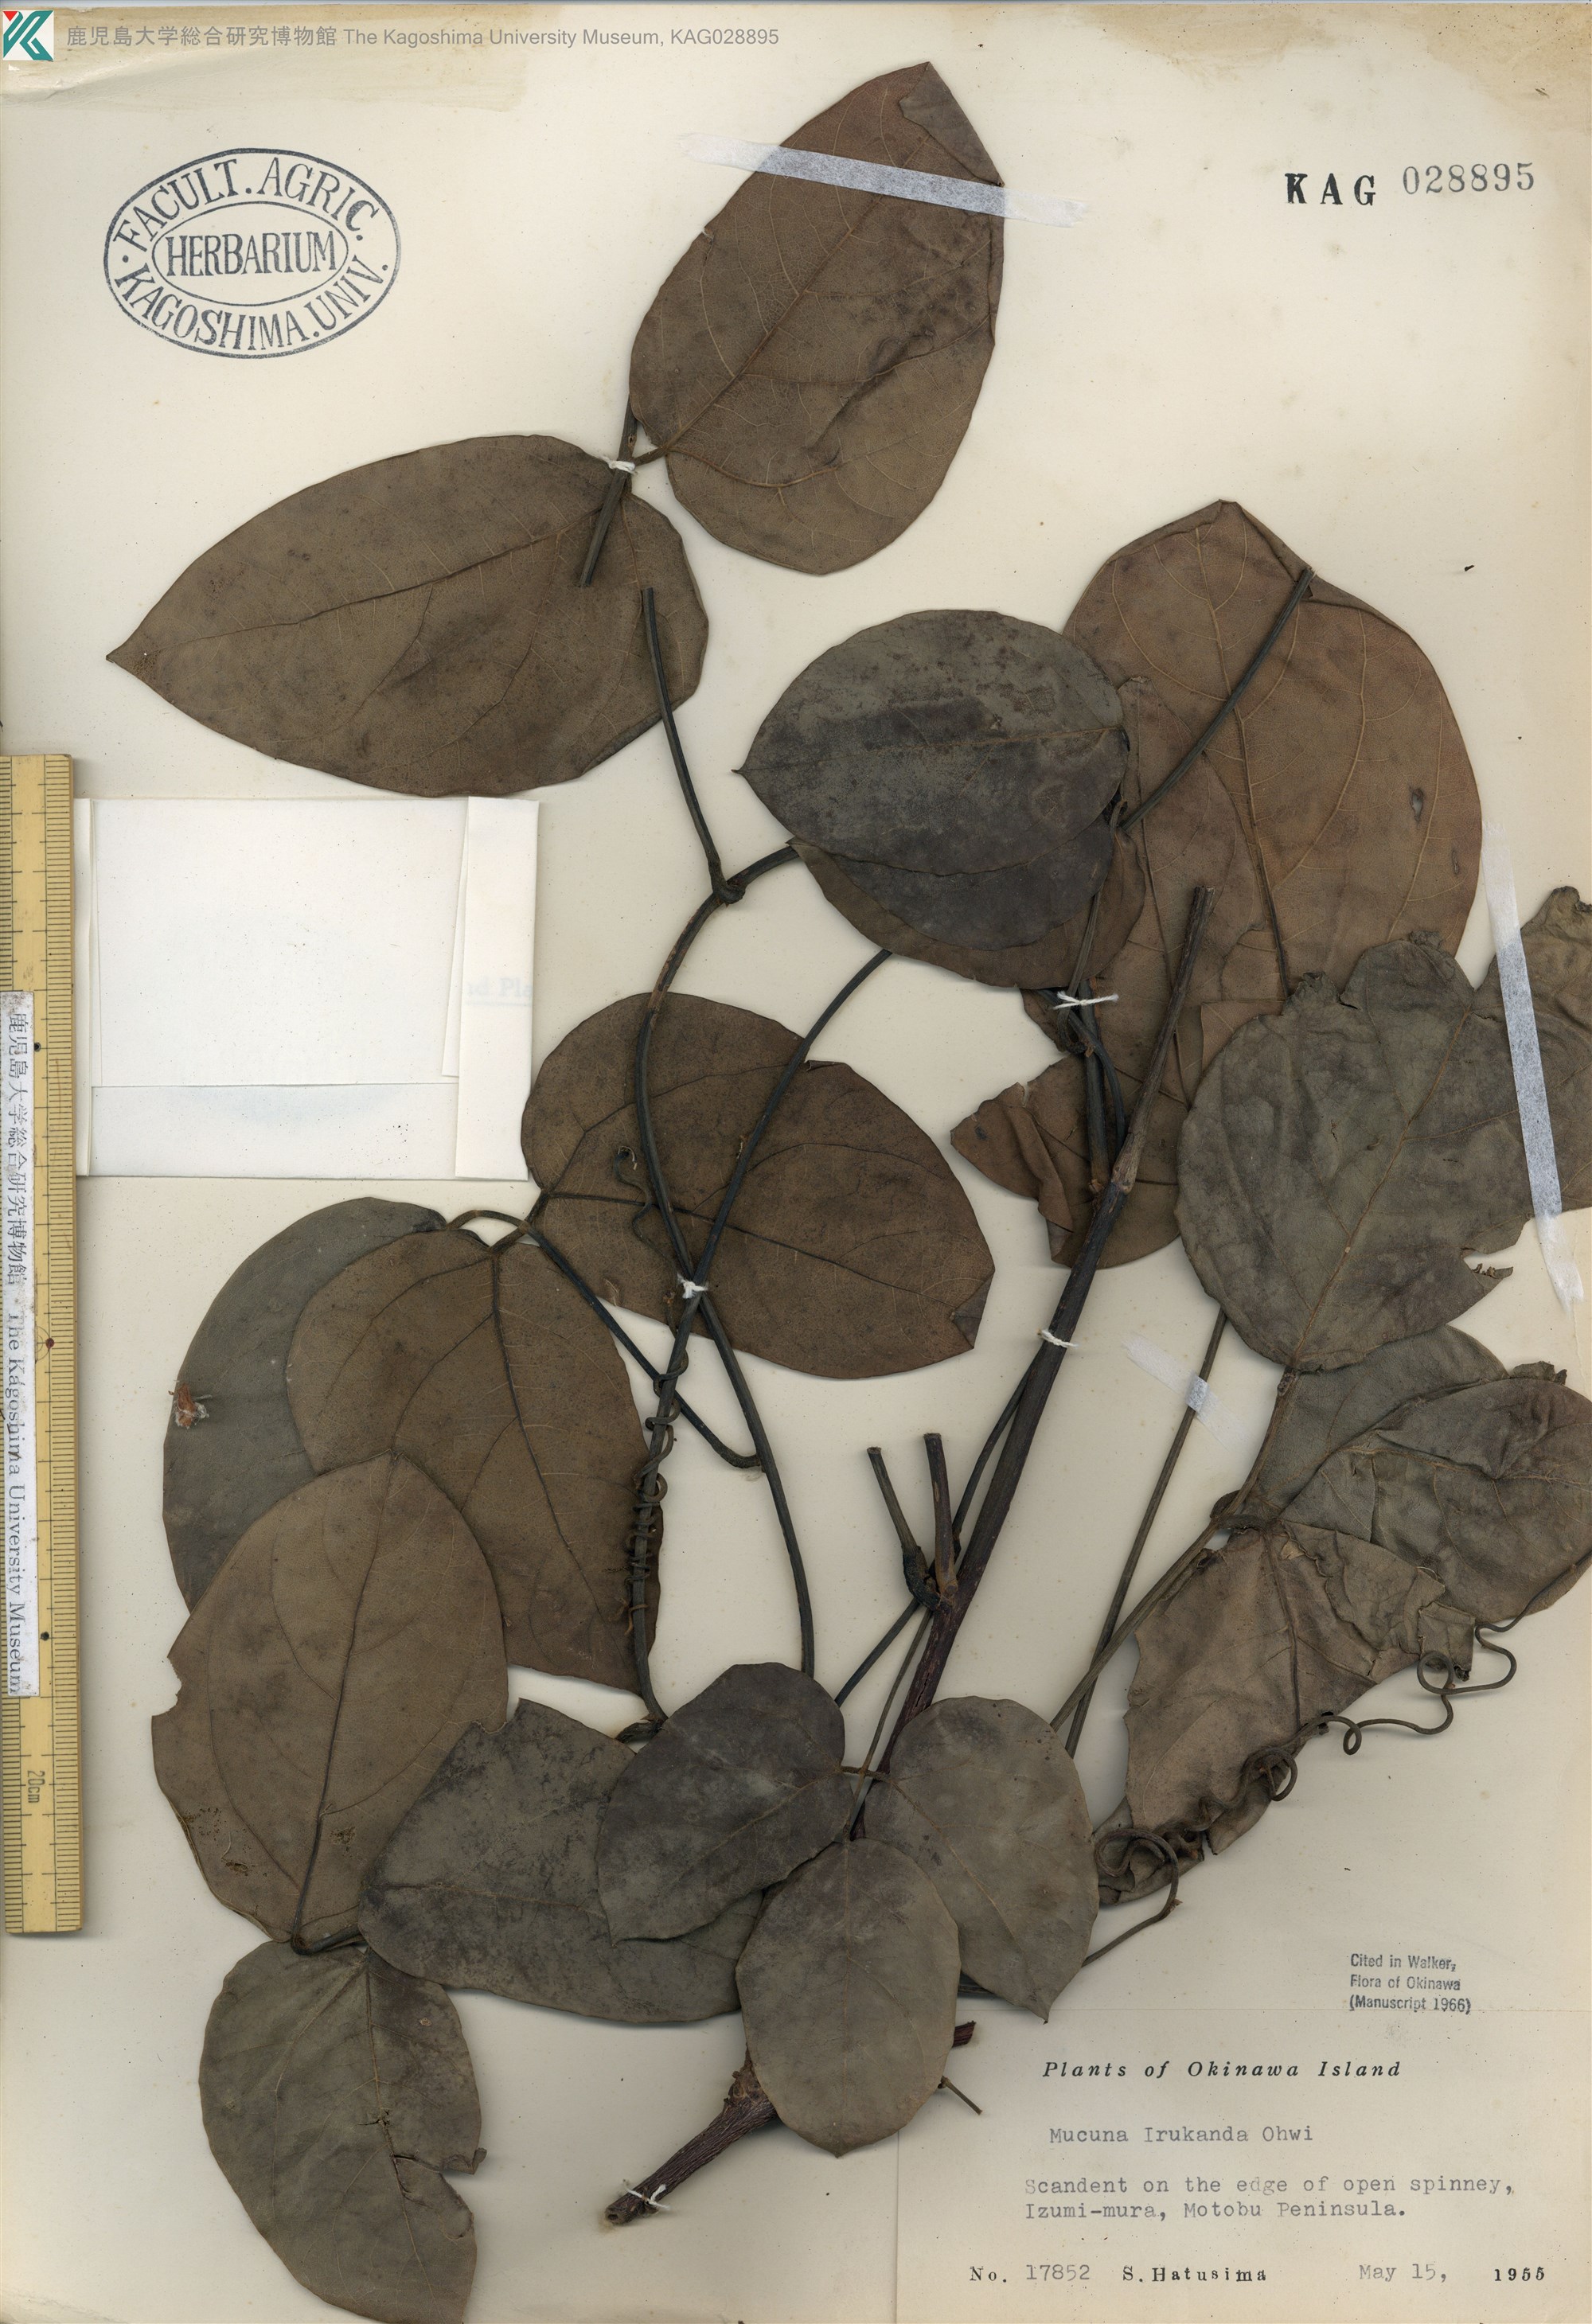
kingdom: Plantae
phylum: Tracheophyta
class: Magnoliopsida
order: Fabales
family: Fabaceae
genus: Mucuna
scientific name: Mucuna macrocarpa
